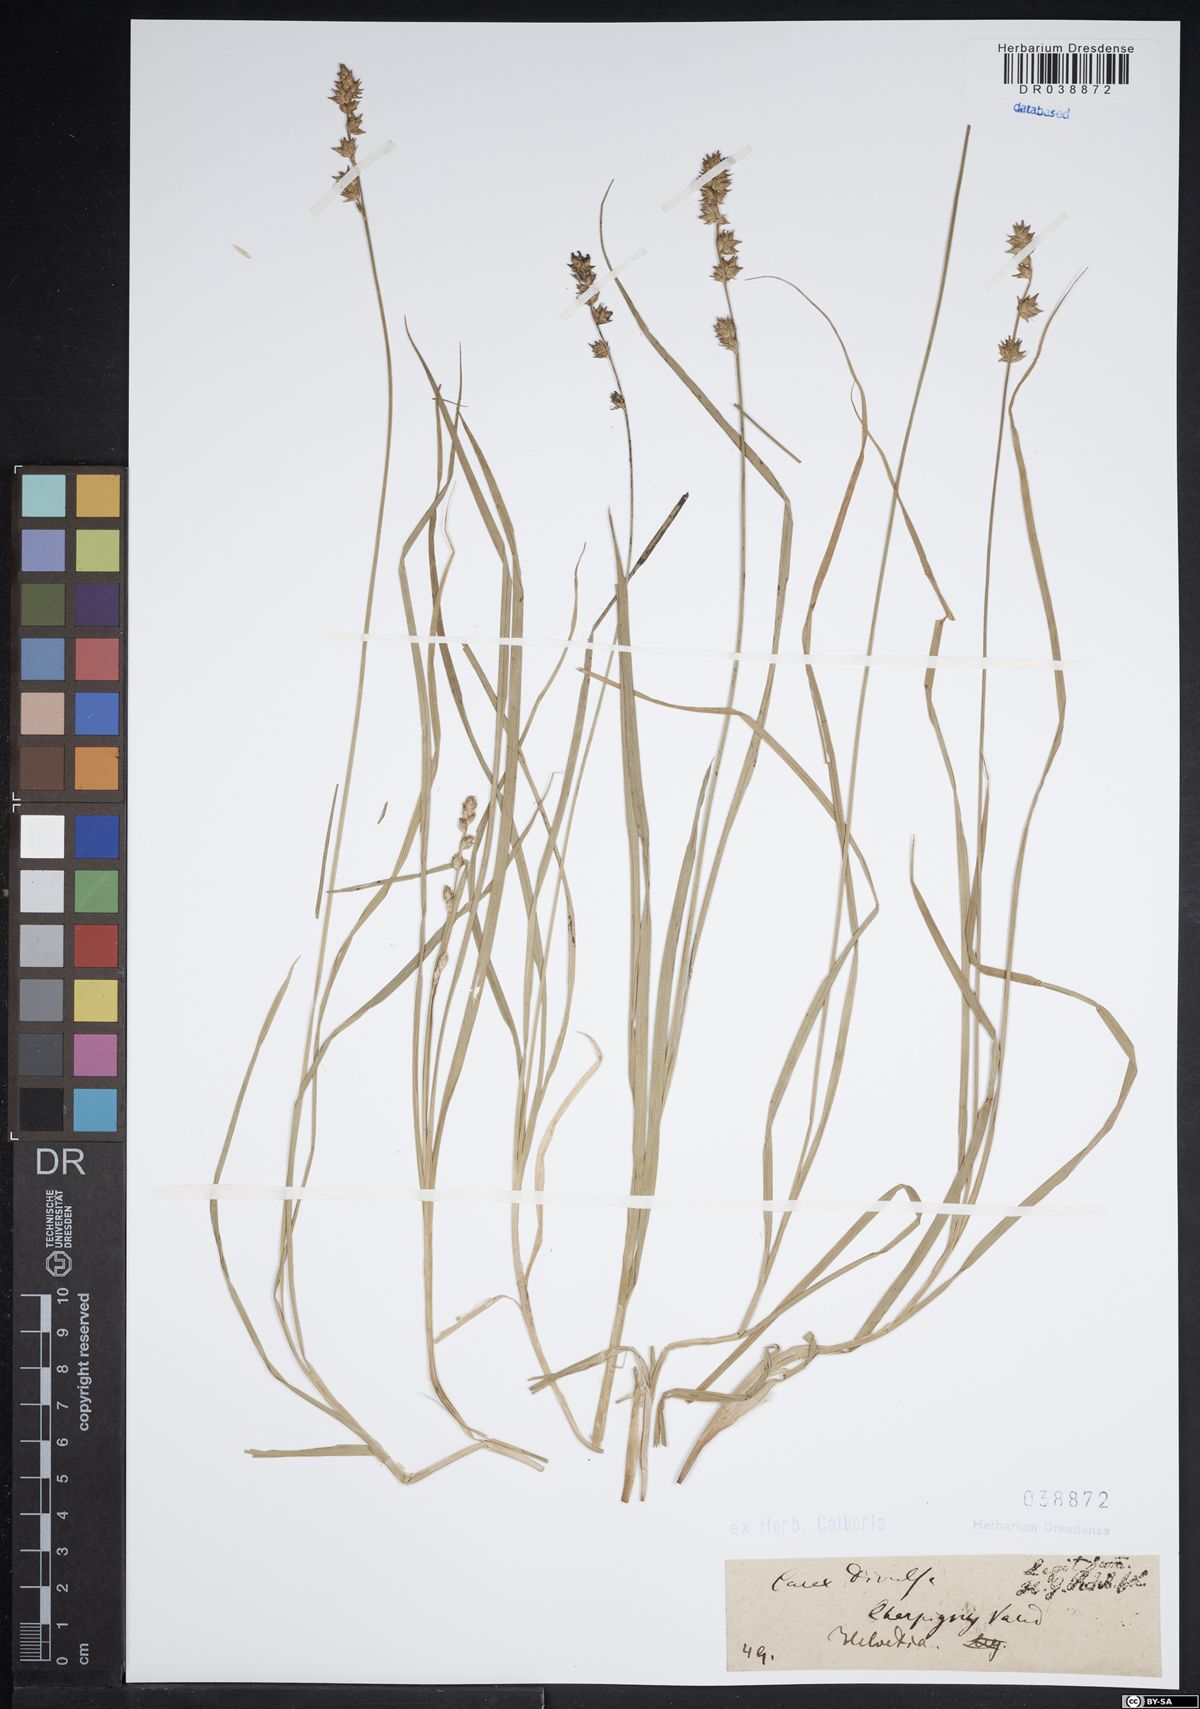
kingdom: Plantae
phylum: Tracheophyta
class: Liliopsida
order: Poales
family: Cyperaceae
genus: Carex
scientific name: Carex divulsa
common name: Grassland sedge
